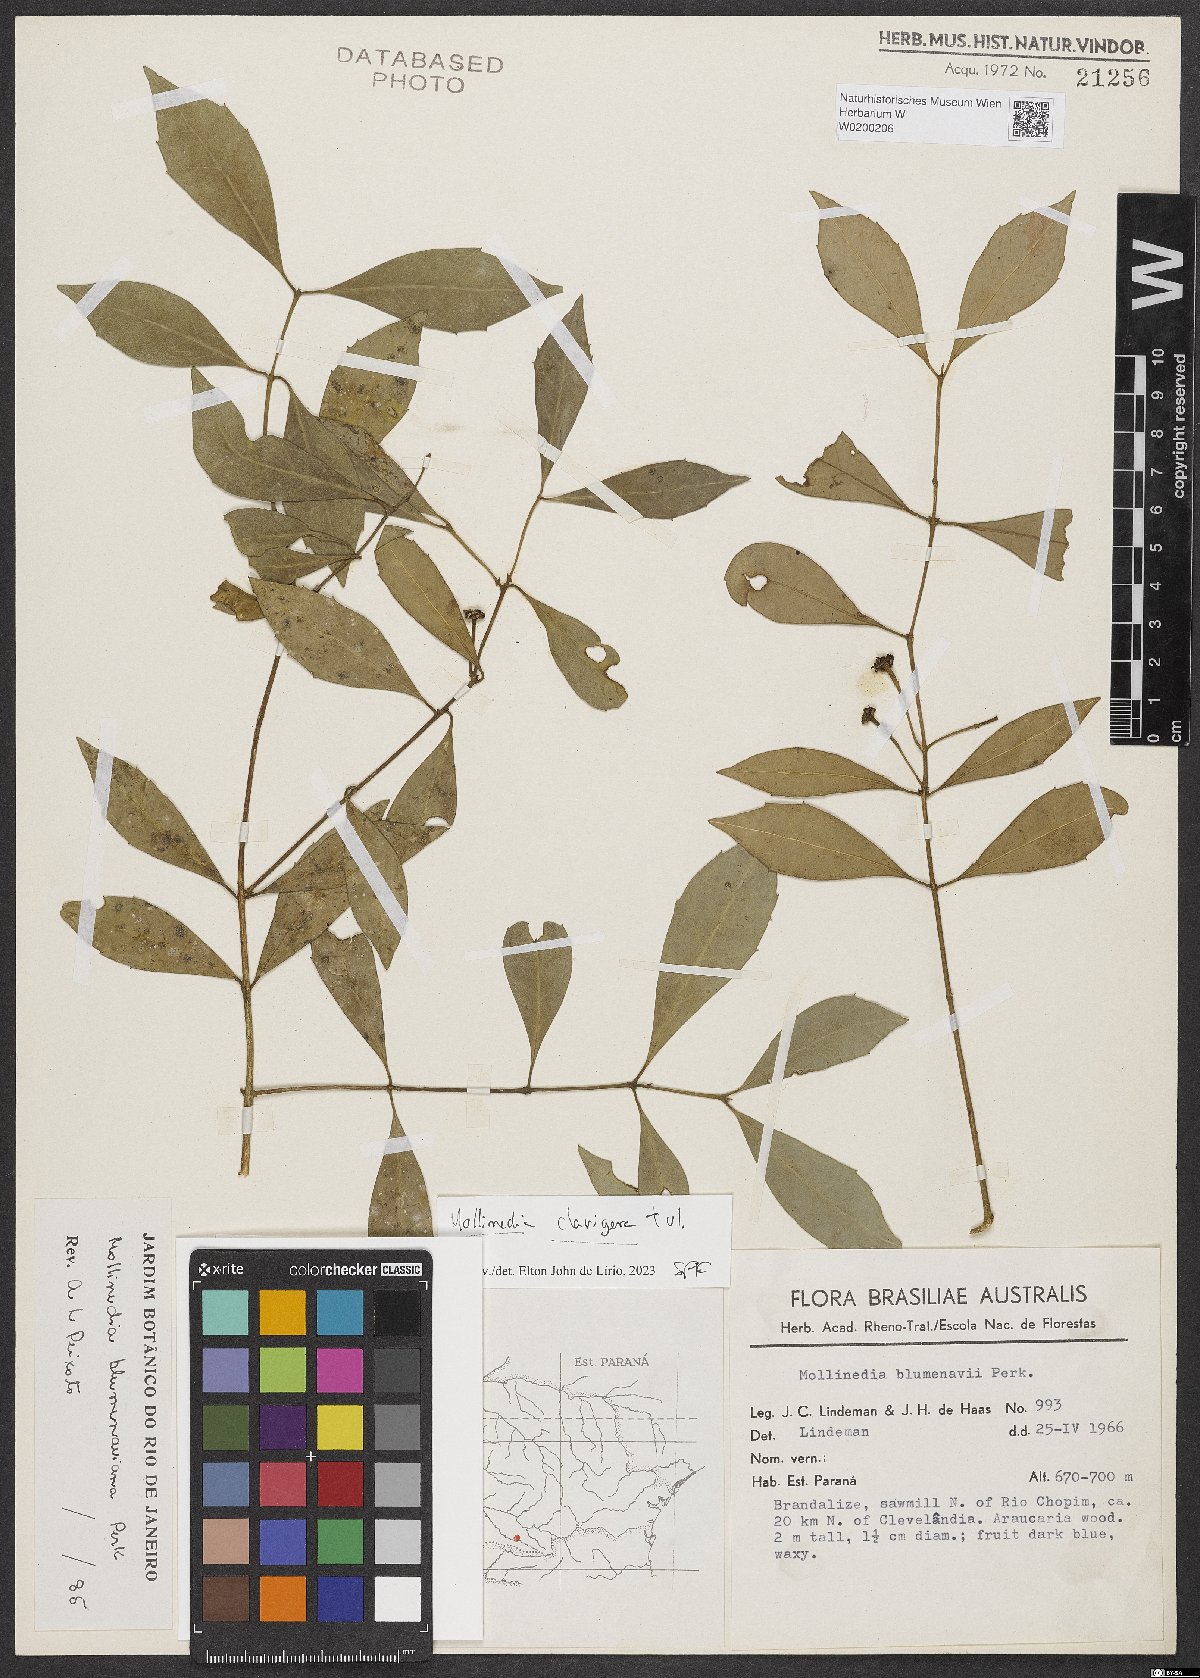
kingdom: Plantae
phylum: Tracheophyta
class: Magnoliopsida
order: Laurales
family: Monimiaceae
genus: Mollinedia
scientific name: Mollinedia clavigera
